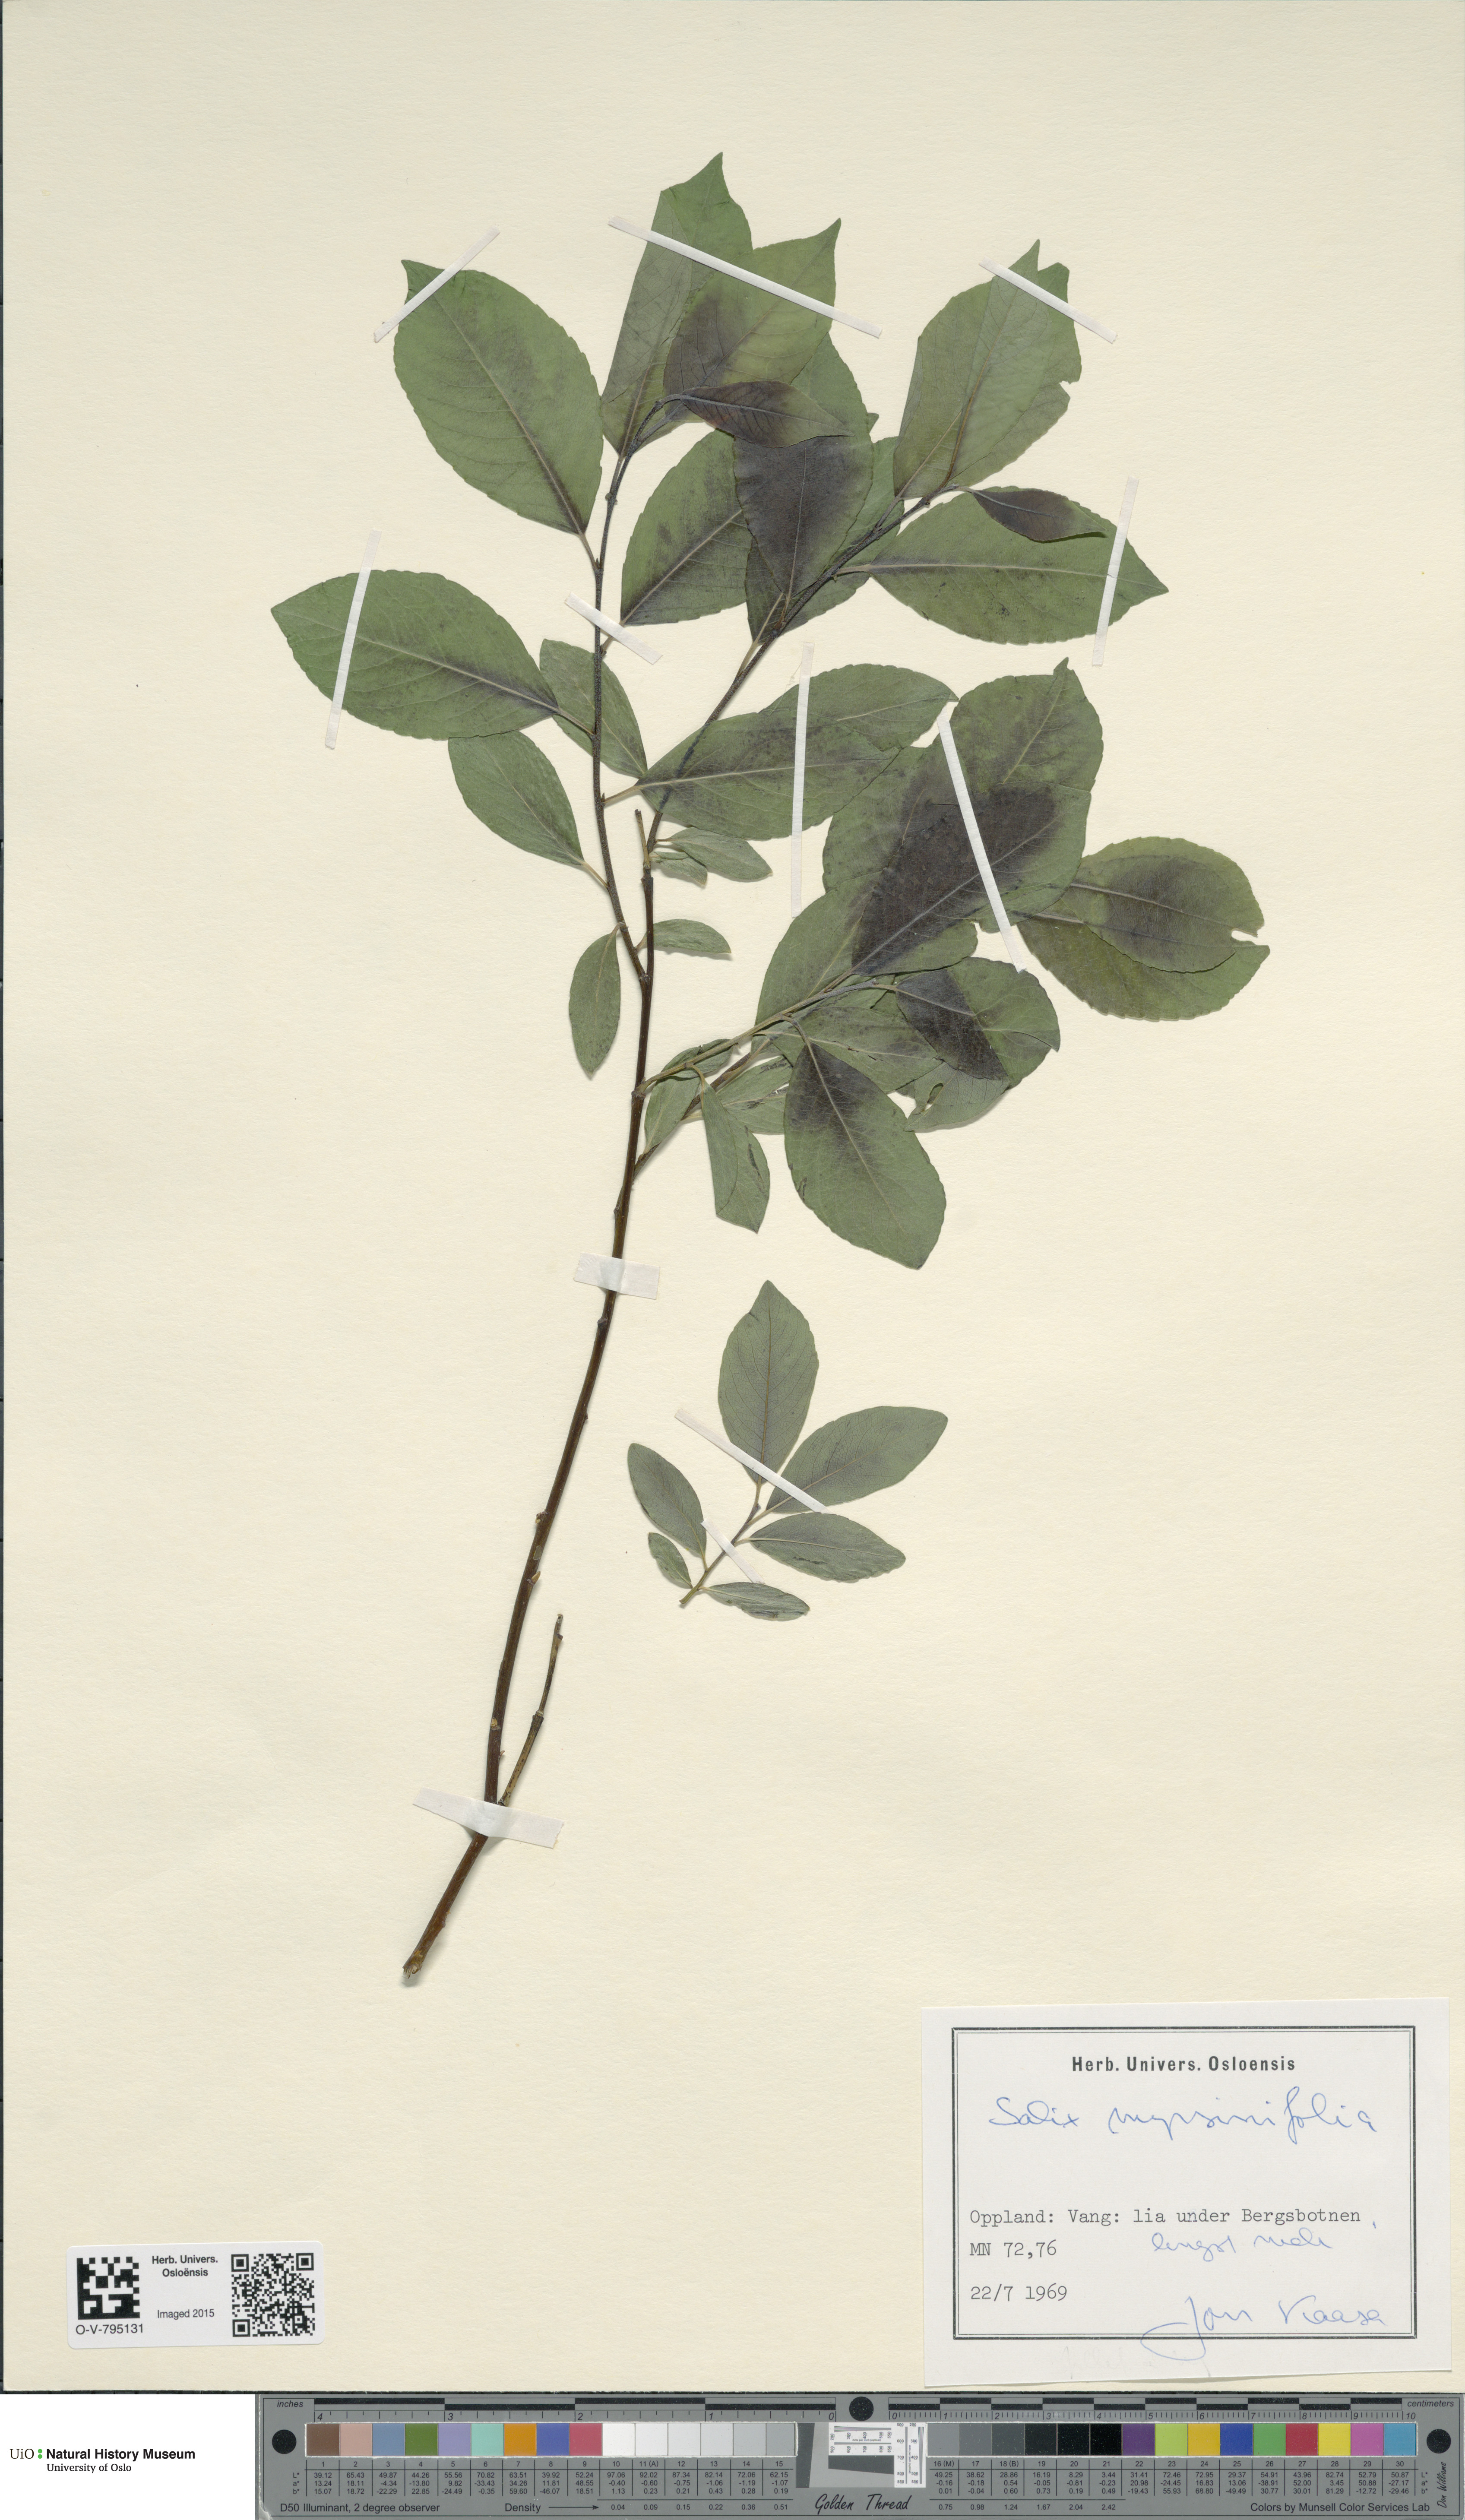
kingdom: Plantae
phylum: Tracheophyta
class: Magnoliopsida
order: Malpighiales
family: Salicaceae
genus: Salix
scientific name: Salix myrsinifolia
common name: Dark-leaved willow
